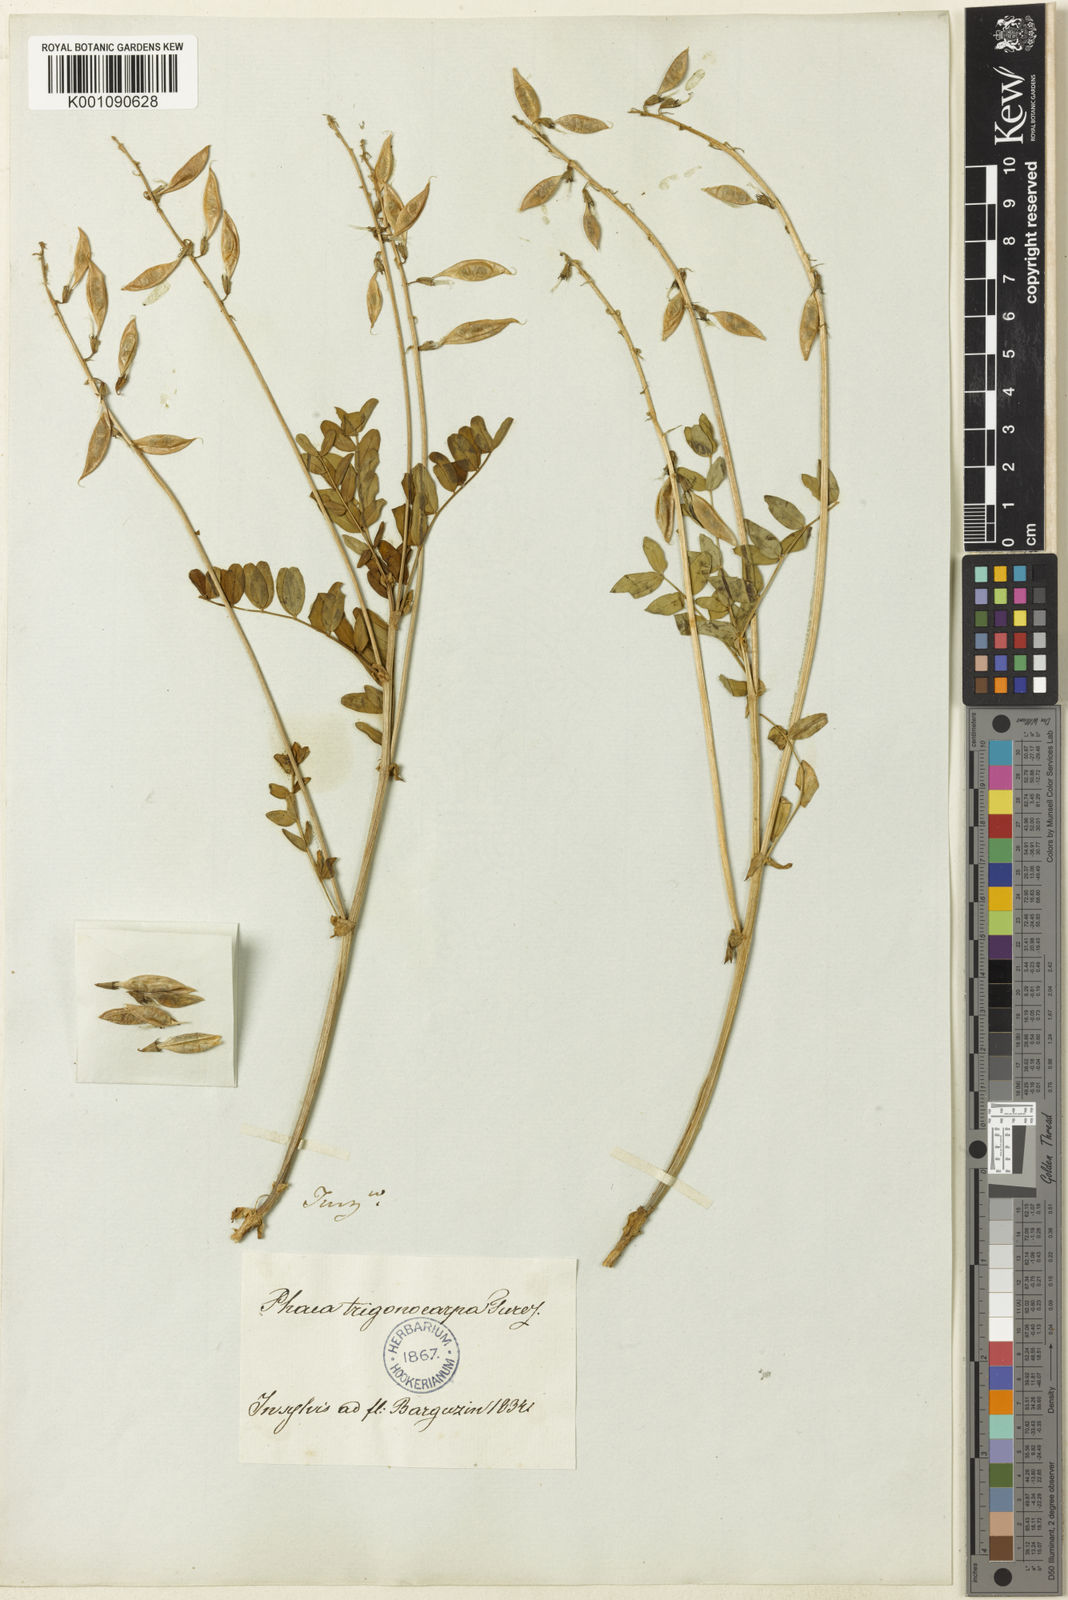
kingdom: Plantae
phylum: Tracheophyta
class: Magnoliopsida
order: Fabales
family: Fabaceae
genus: Astragalus
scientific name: Astragalus
